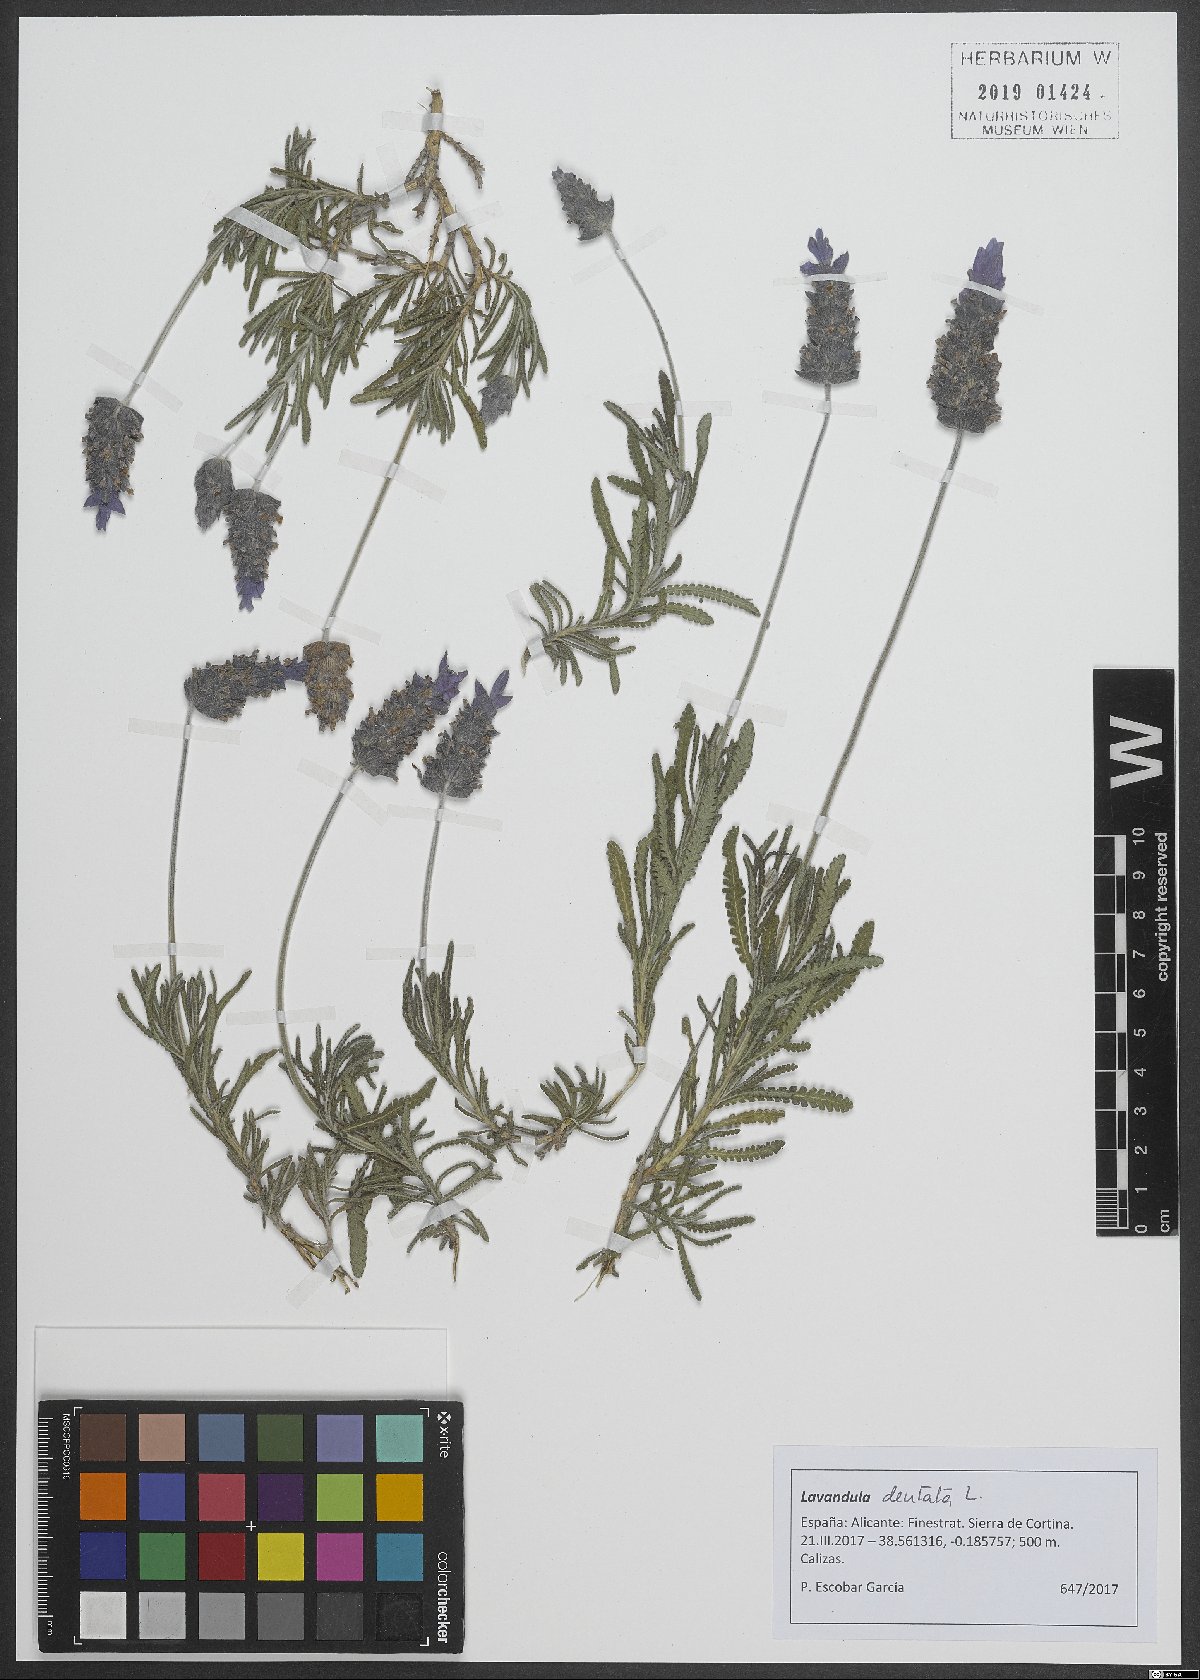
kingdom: Plantae
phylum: Tracheophyta
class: Magnoliopsida
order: Lamiales
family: Lamiaceae
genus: Lavandula
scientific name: Lavandula dentata
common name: French lavender
